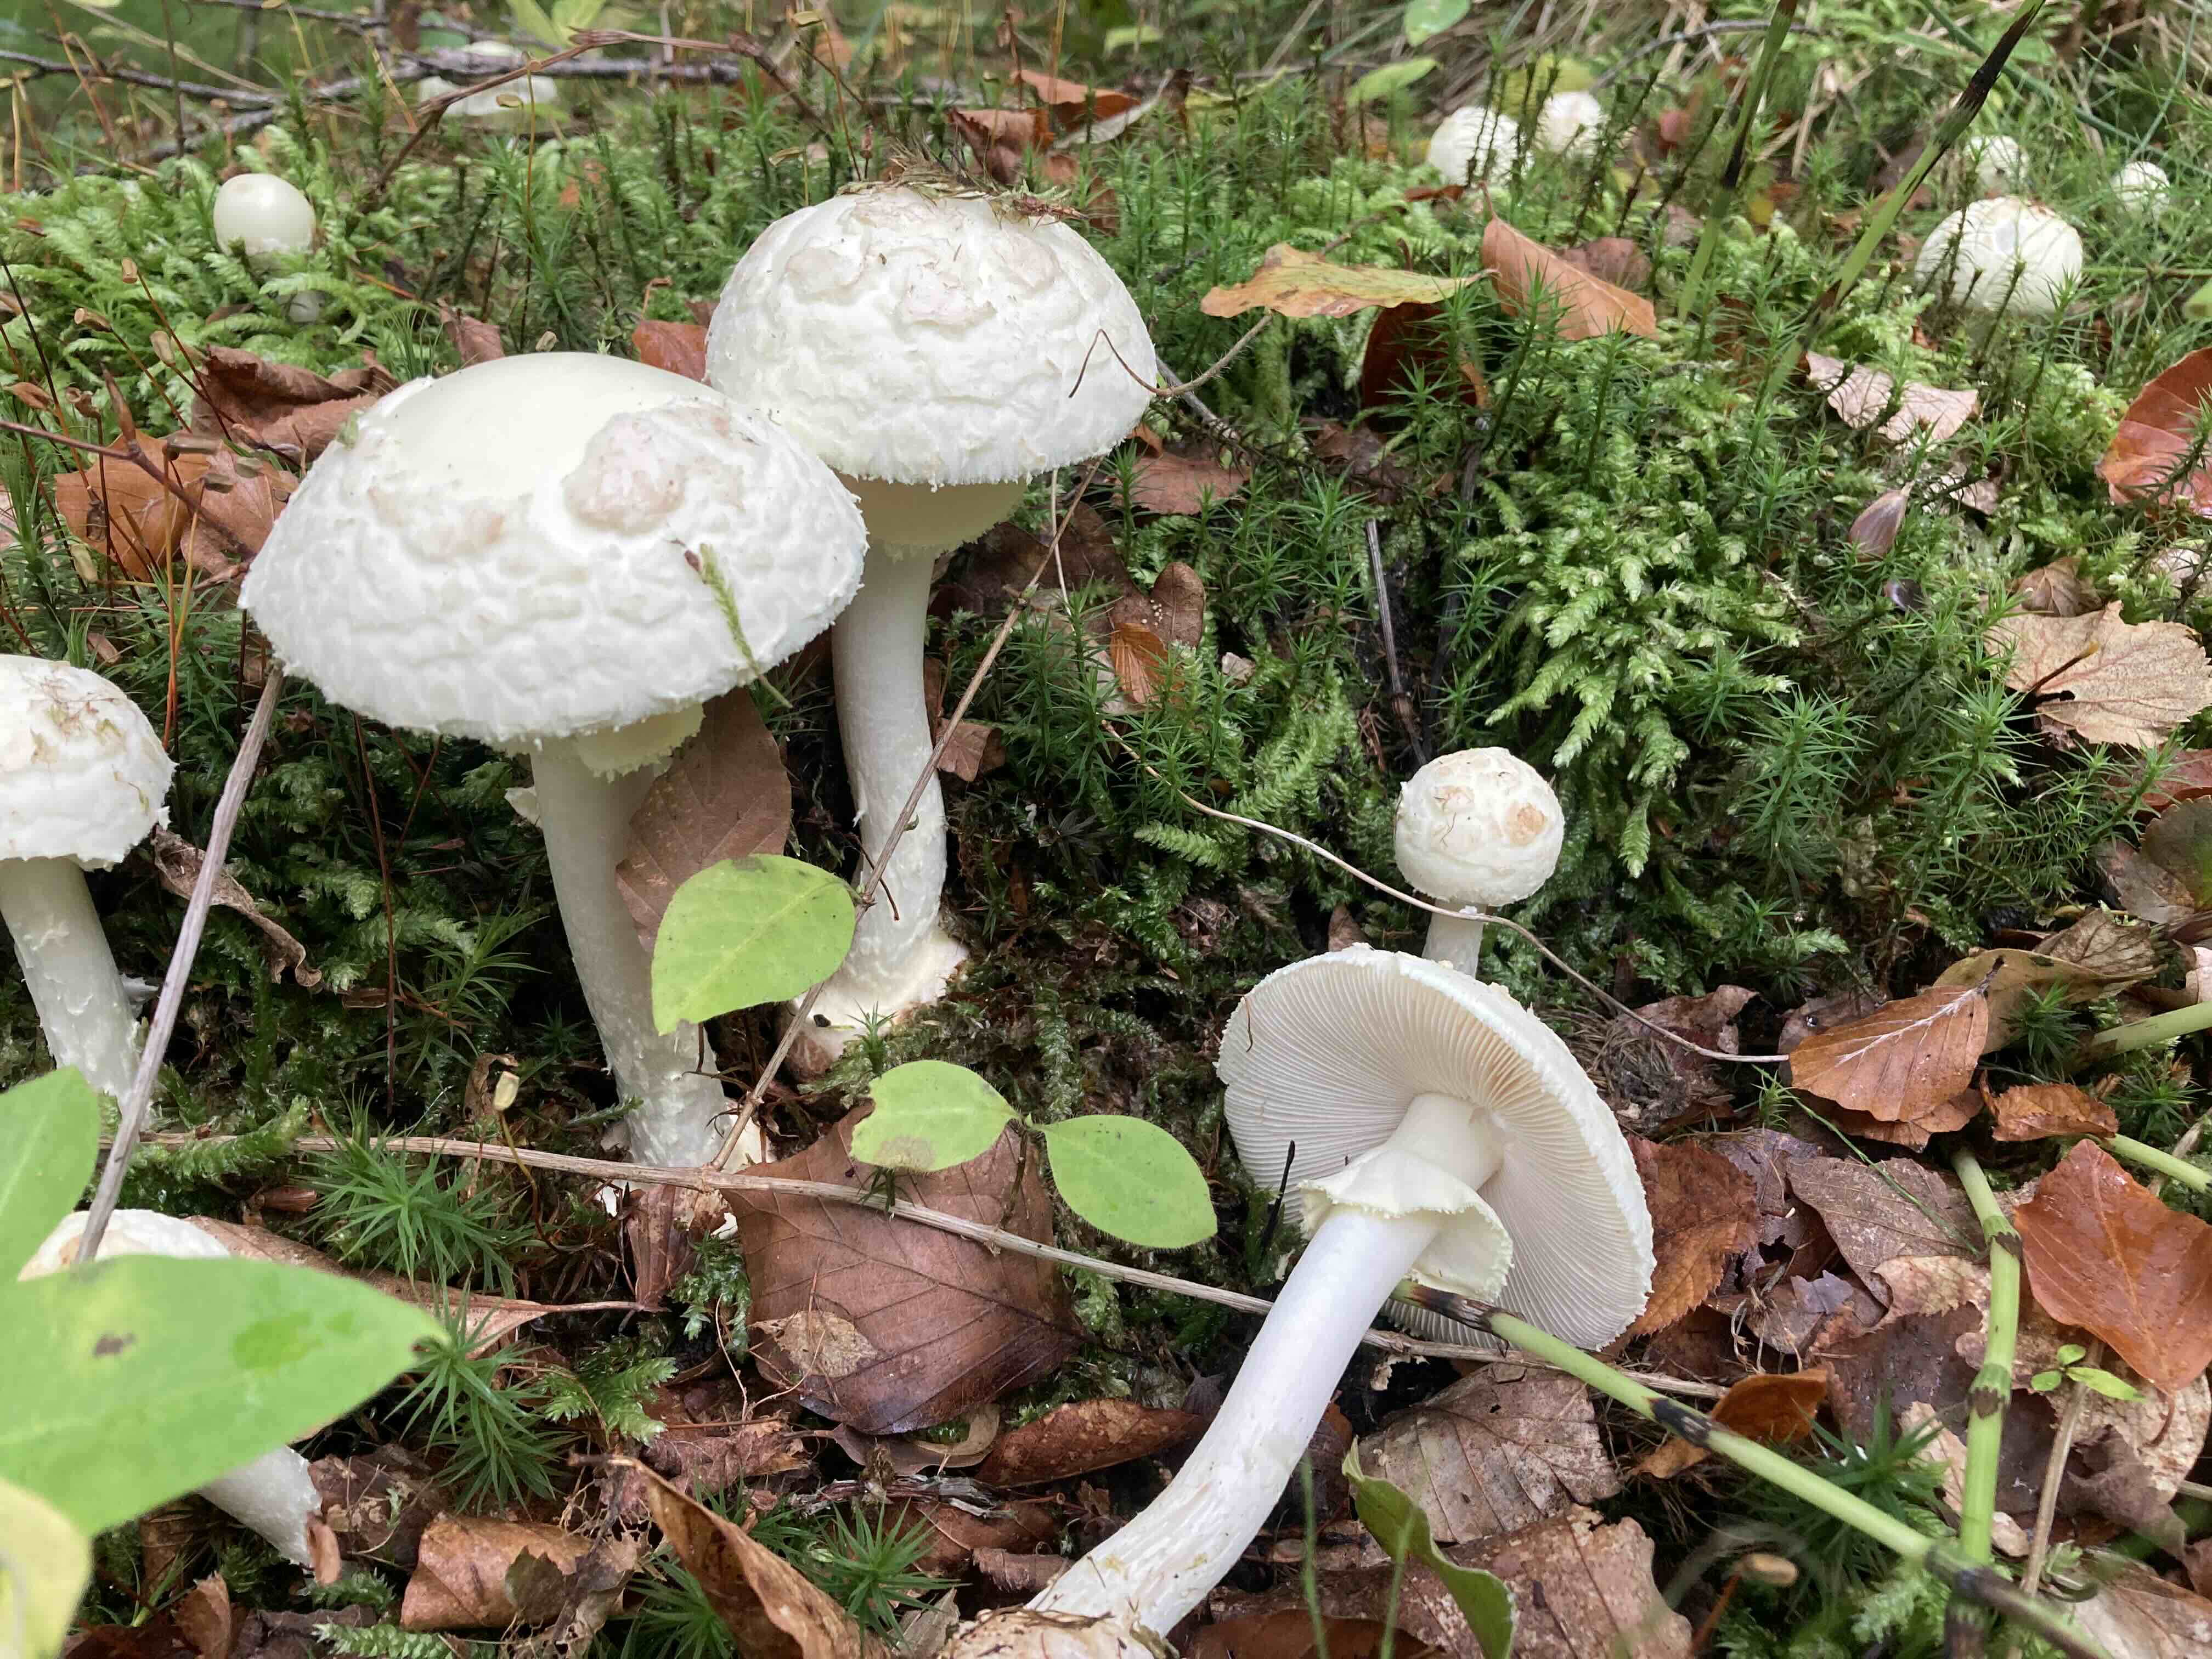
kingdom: Fungi
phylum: Basidiomycota
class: Agaricomycetes
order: Agaricales
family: Amanitaceae
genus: Amanita
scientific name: Amanita citrina
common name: kugleknoldet fluesvamp
